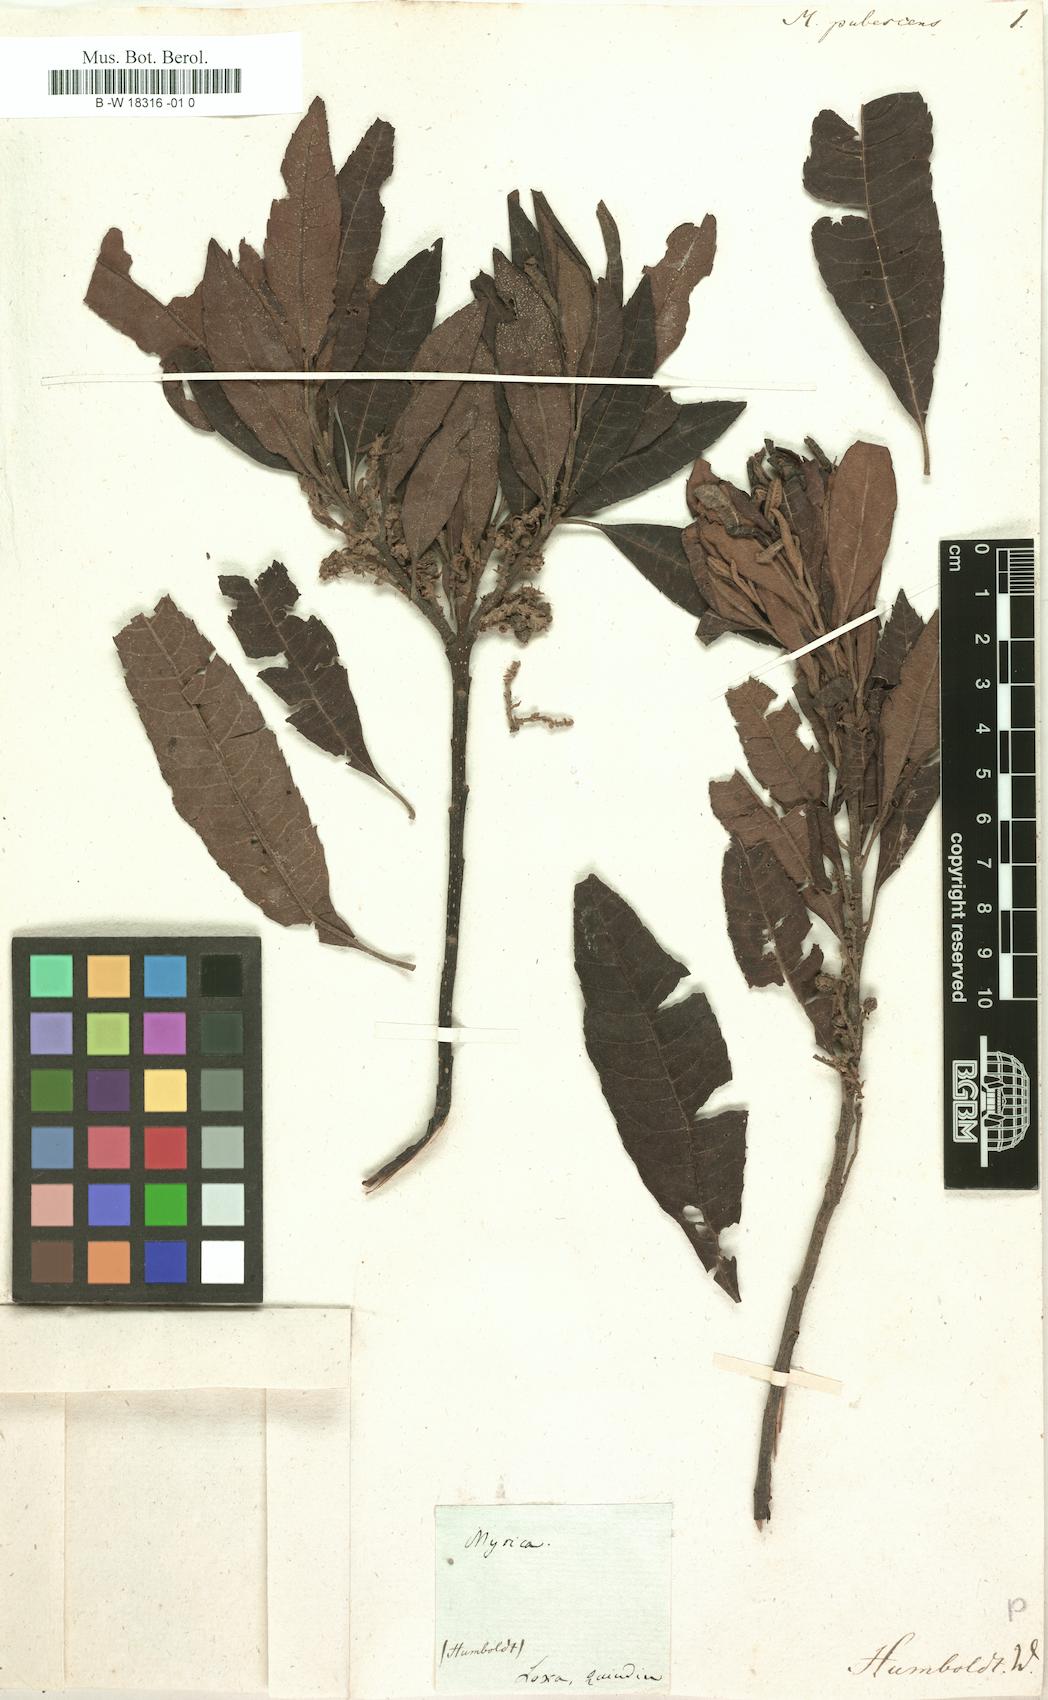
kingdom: Plantae
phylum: Tracheophyta
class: Magnoliopsida
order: Fagales
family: Myricaceae
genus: Morella
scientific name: Morella pubescens
